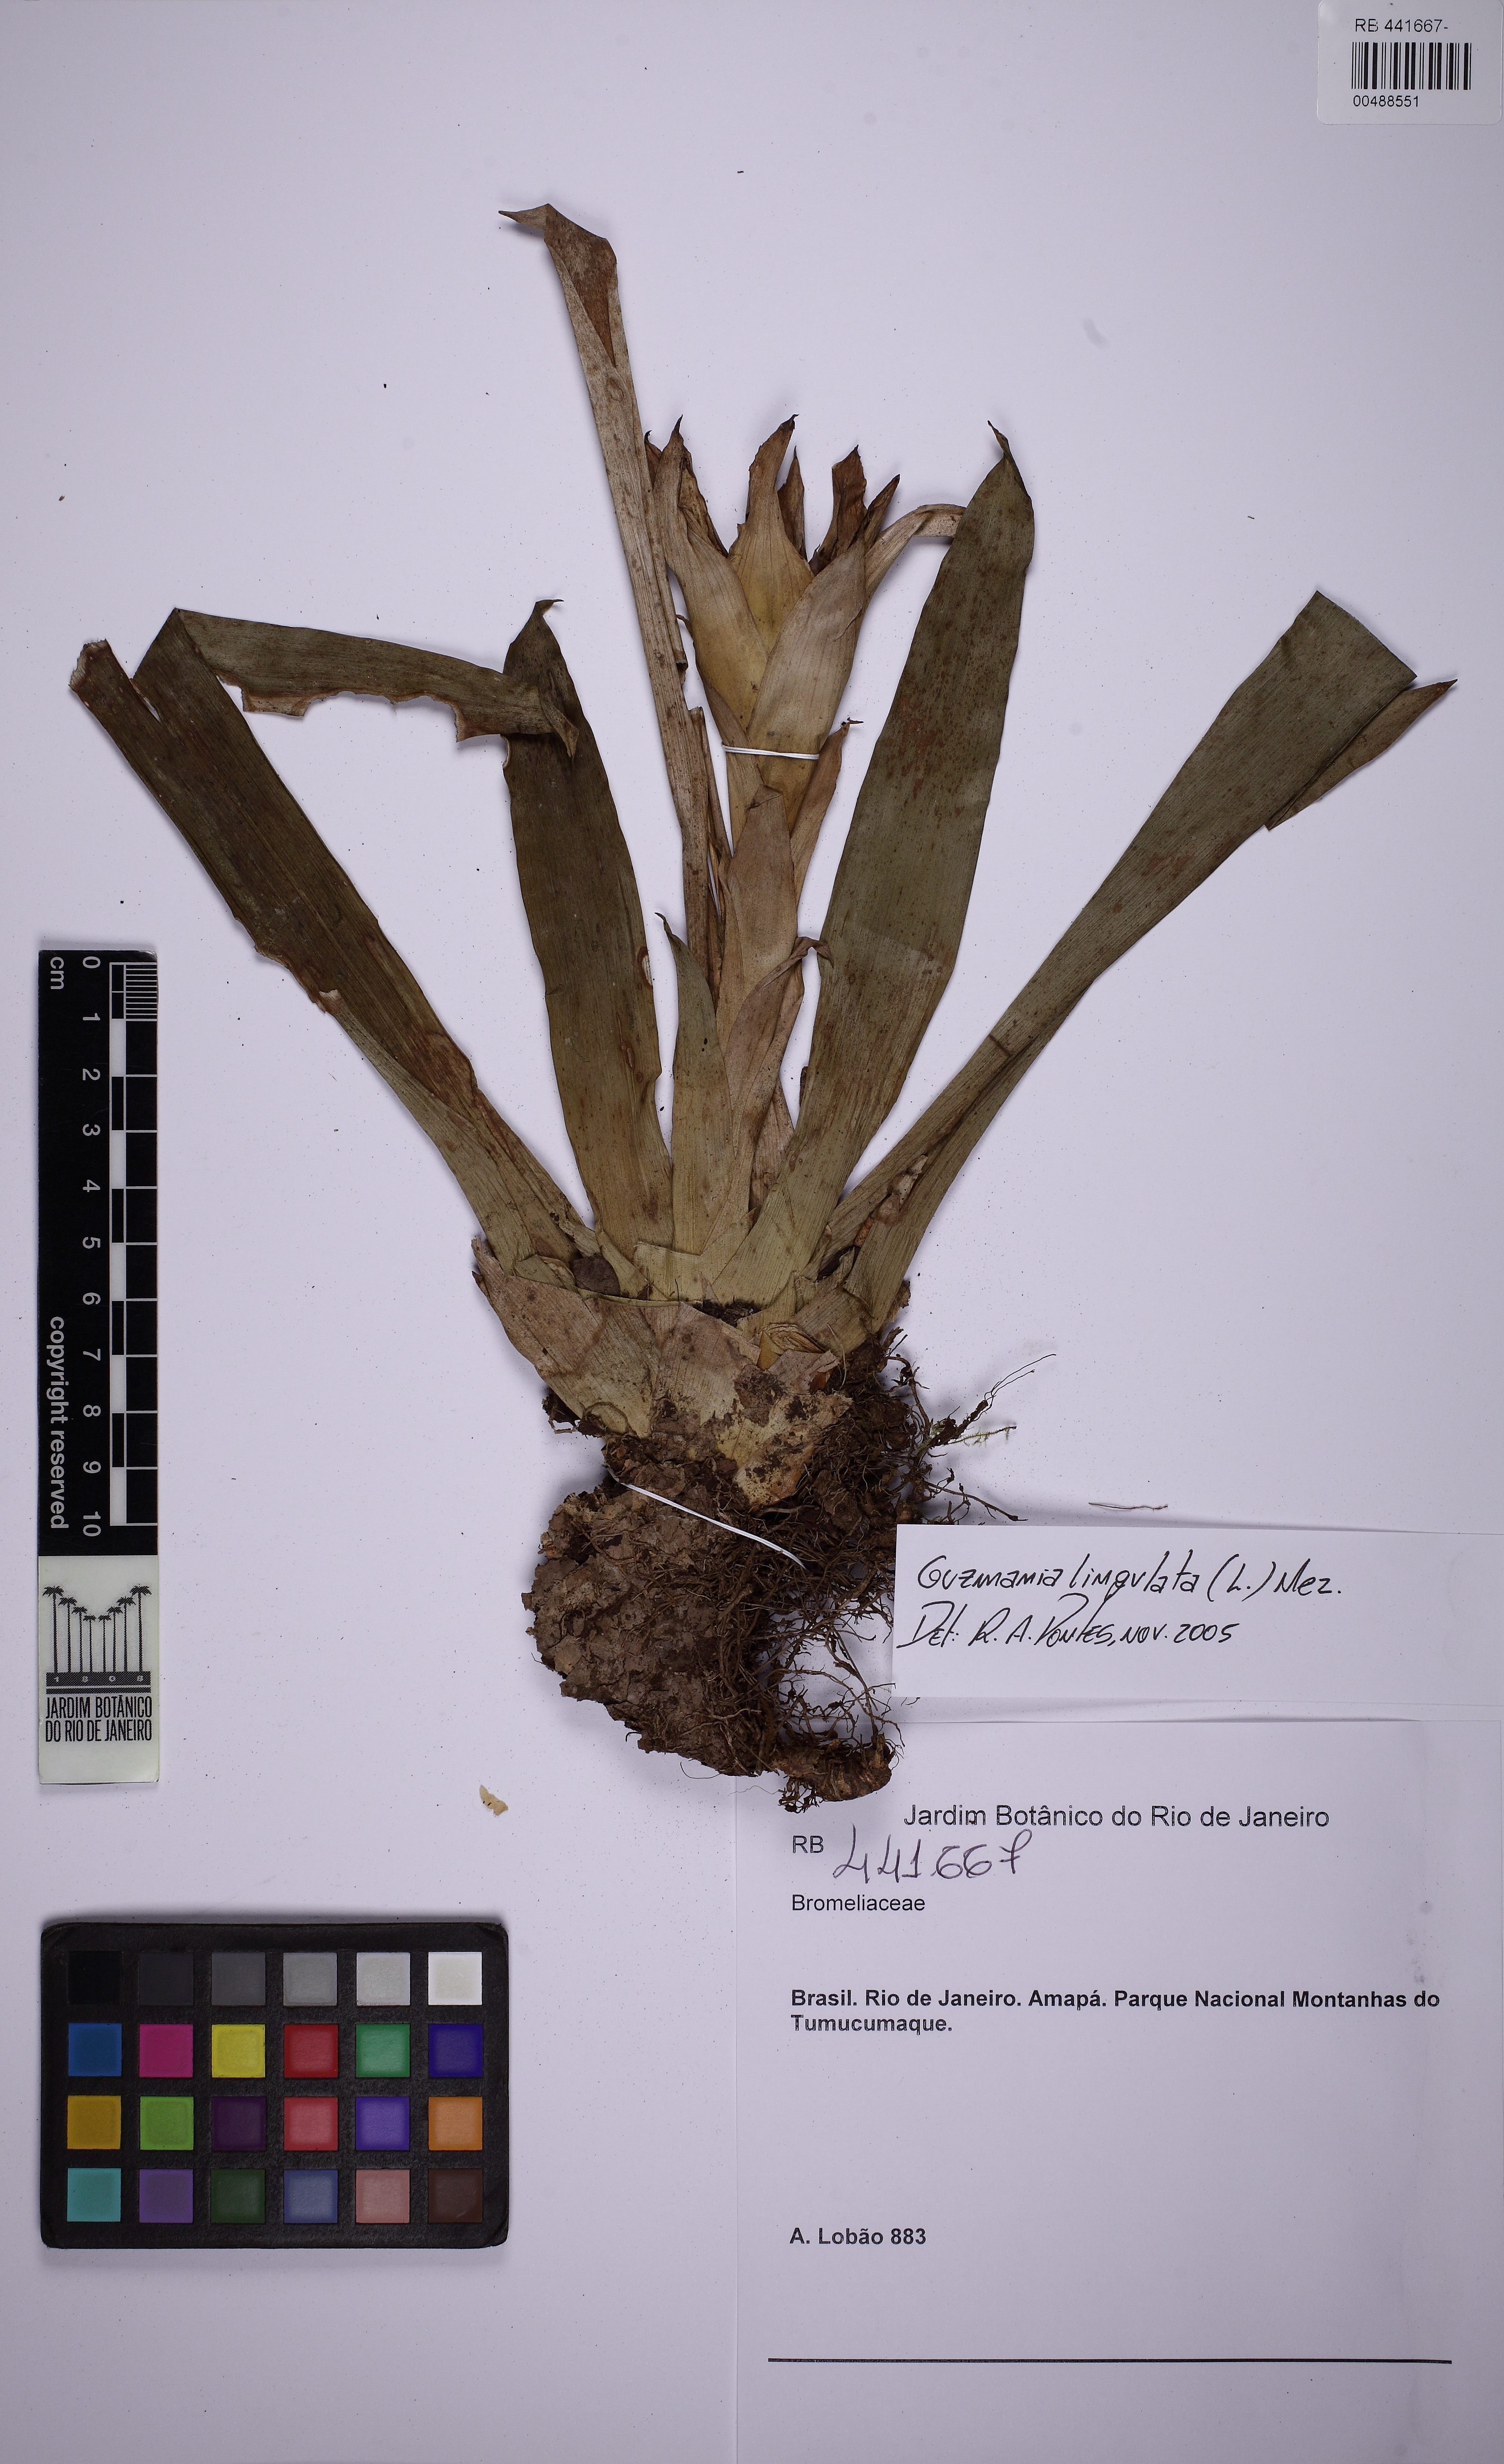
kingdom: Plantae
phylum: Tracheophyta
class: Liliopsida
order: Poales
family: Bromeliaceae
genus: Guzmania
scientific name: Guzmania lingulata
